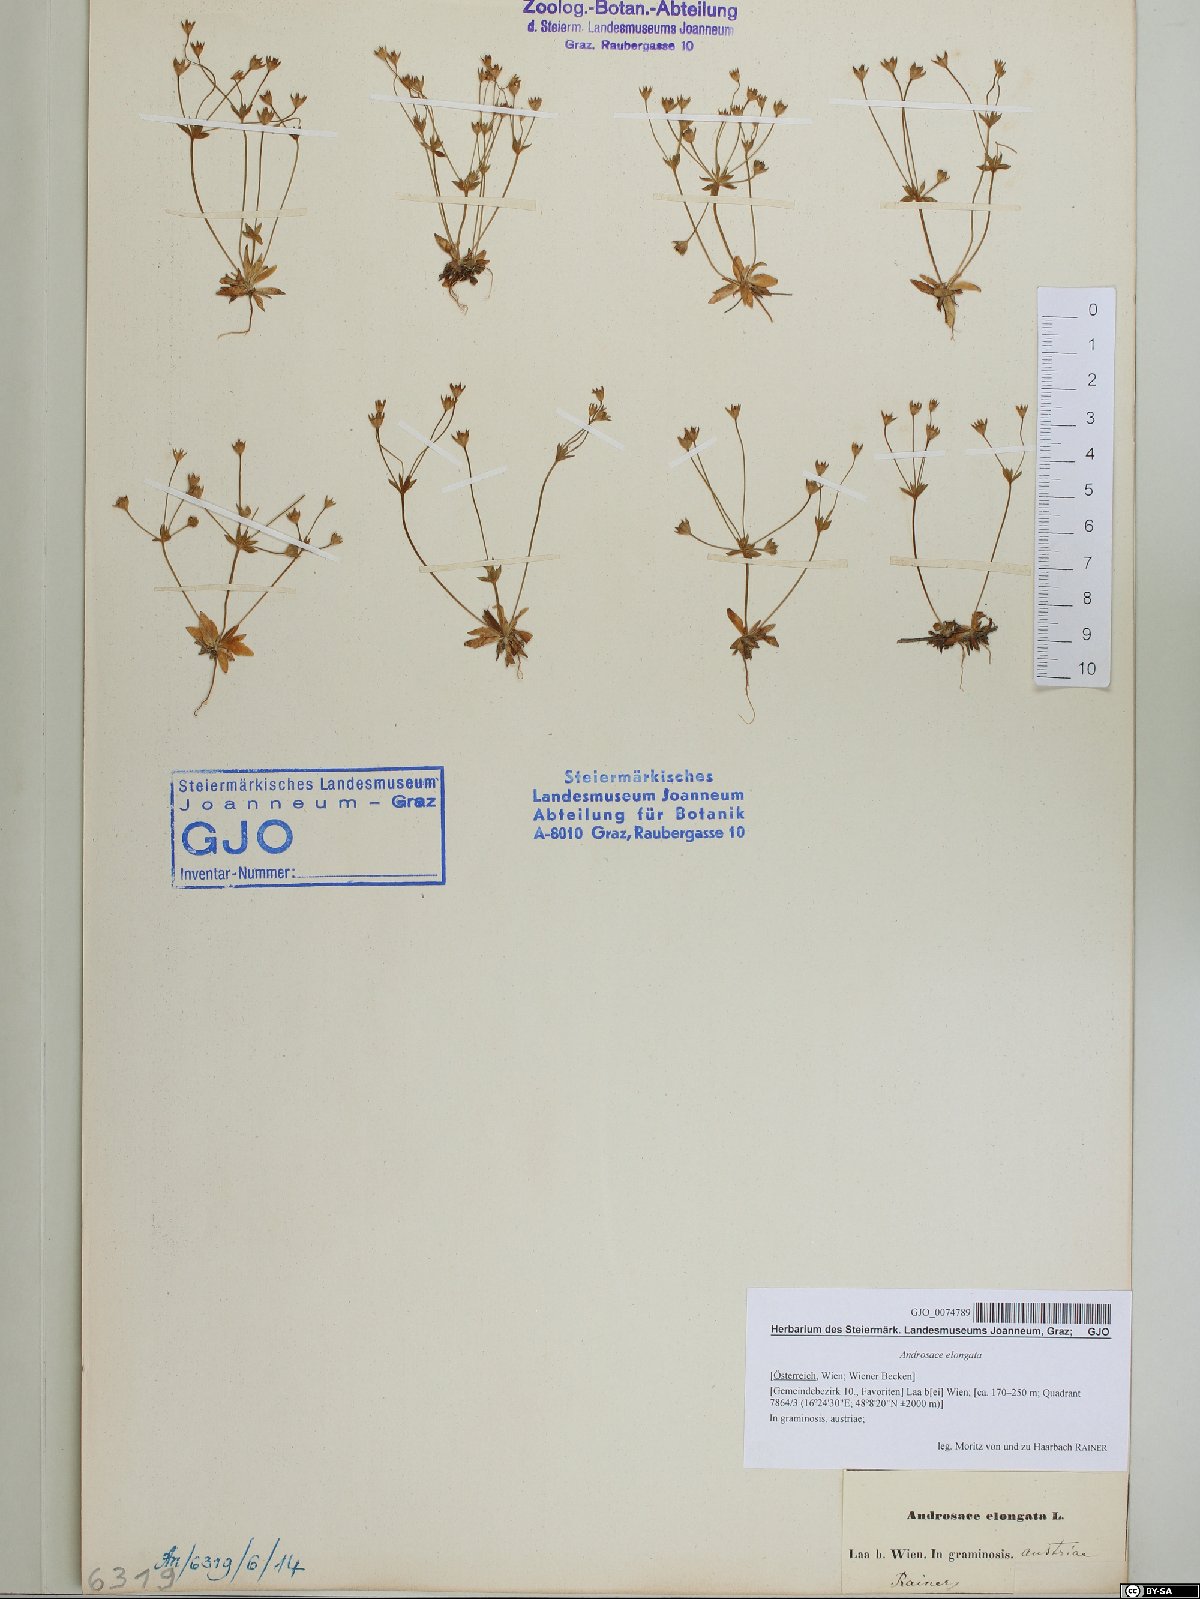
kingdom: Plantae
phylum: Tracheophyta
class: Magnoliopsida
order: Ericales
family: Primulaceae
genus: Androsace
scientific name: Androsace elongata
